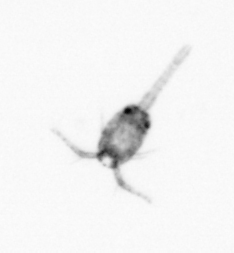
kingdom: Animalia
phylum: Arthropoda
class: Copepoda
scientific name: Copepoda
